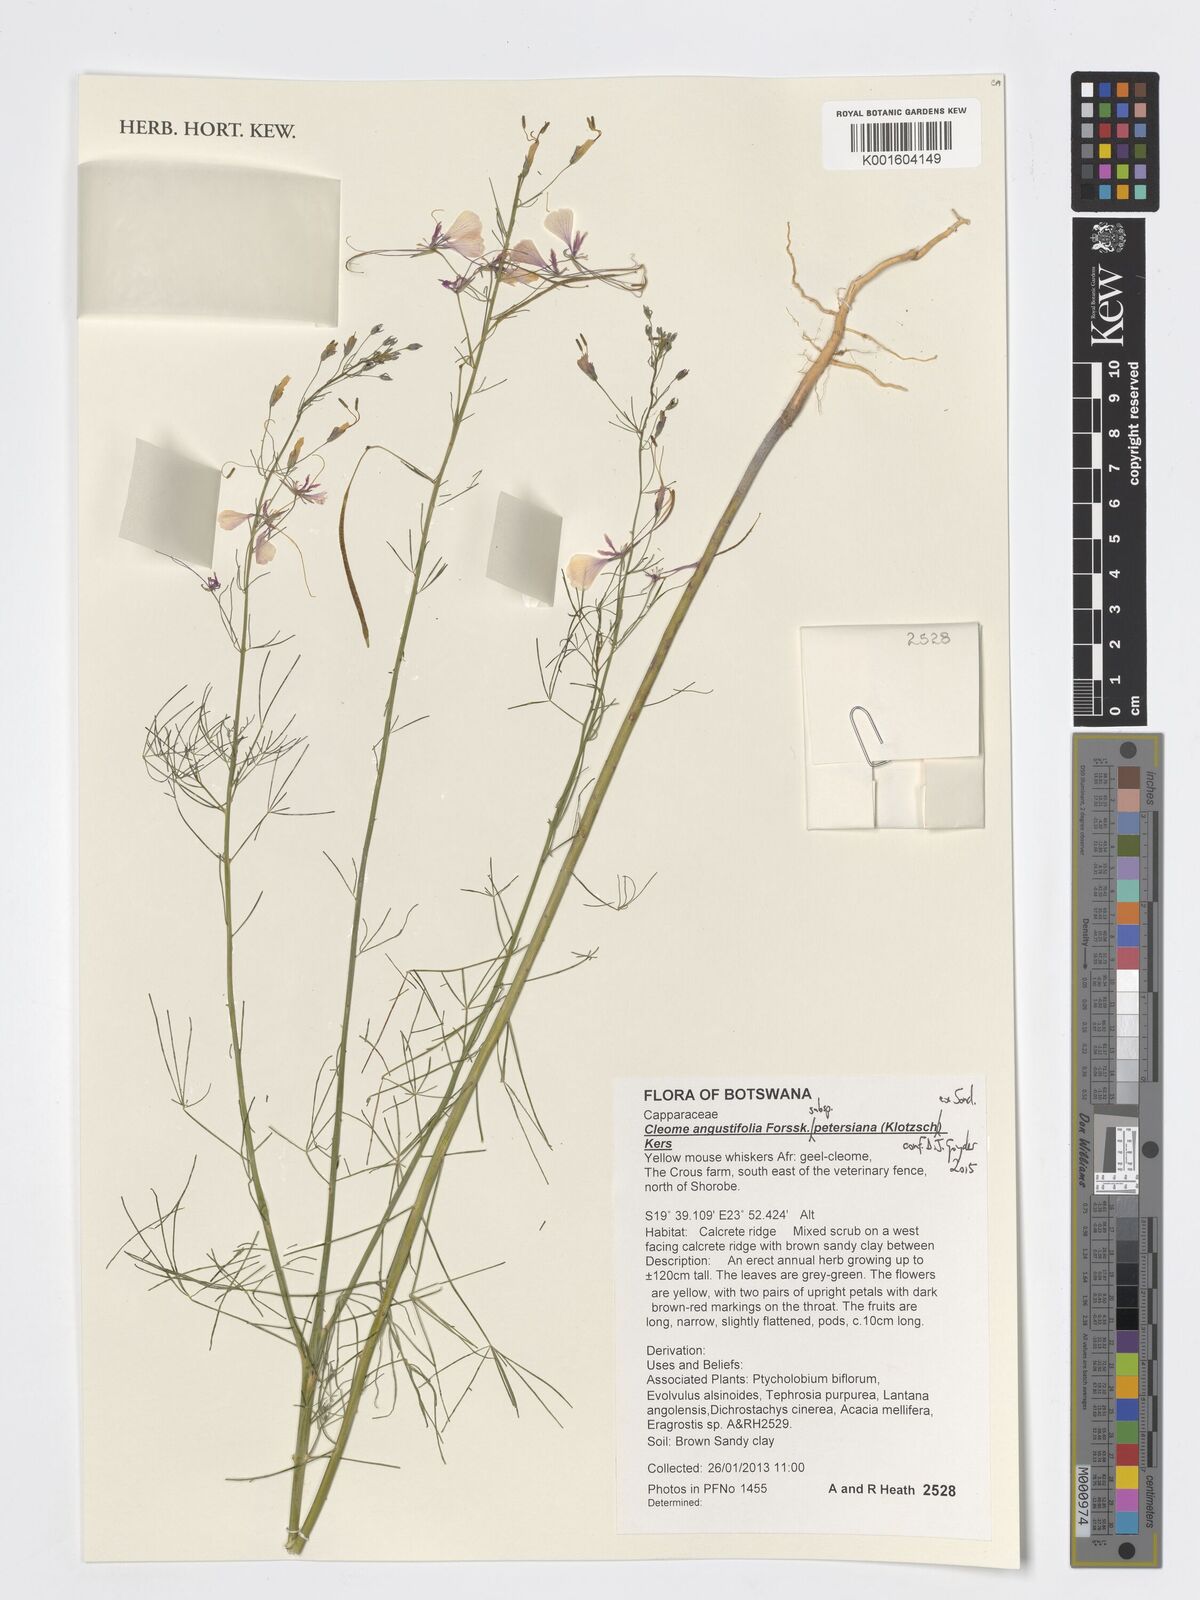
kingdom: Plantae
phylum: Tracheophyta
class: Magnoliopsida
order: Brassicales
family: Cleomaceae
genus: Coalisina
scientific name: Coalisina angustifolia
